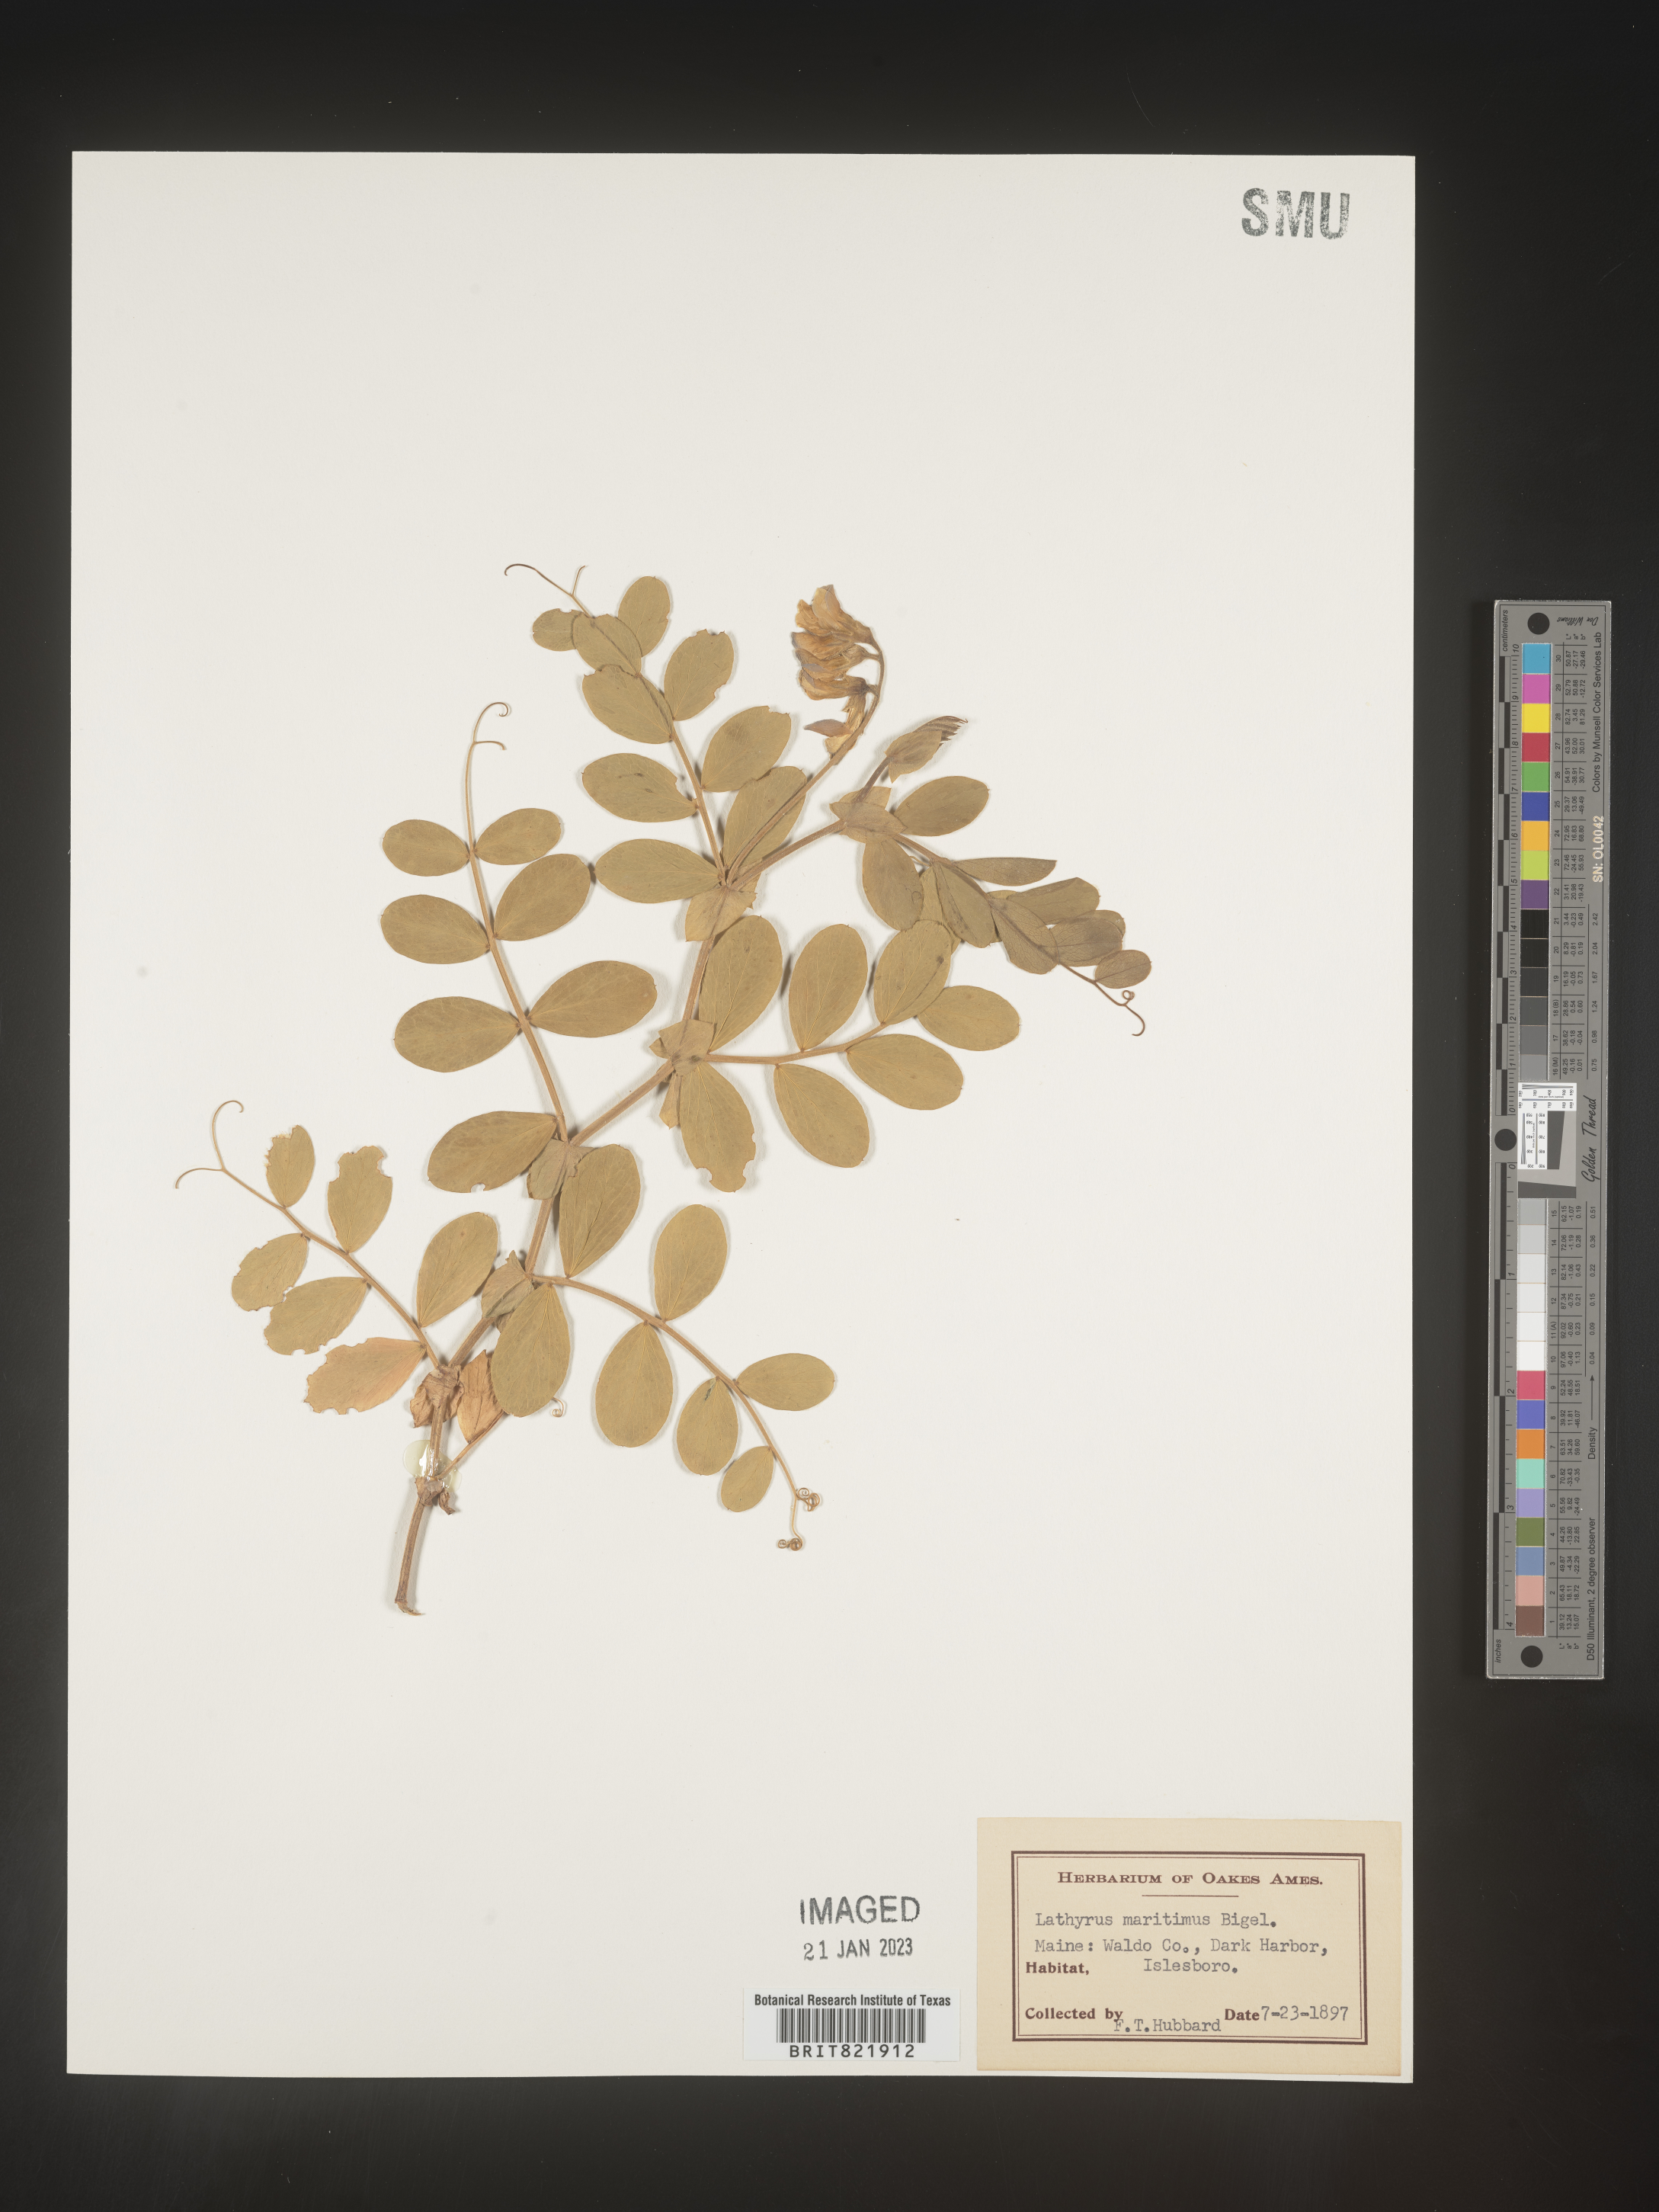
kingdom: Plantae
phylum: Tracheophyta
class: Magnoliopsida
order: Fabales
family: Fabaceae
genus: Lathyrus
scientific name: Lathyrus
